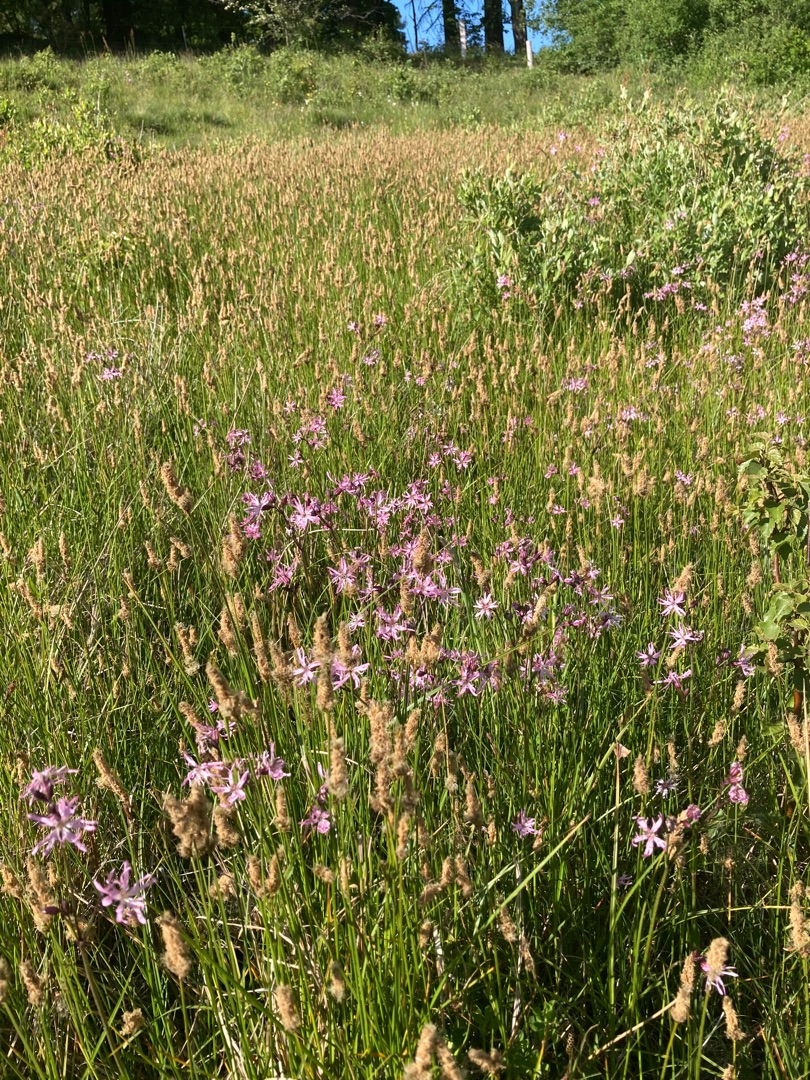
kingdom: Plantae
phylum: Tracheophyta
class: Magnoliopsida
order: Caryophyllales
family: Caryophyllaceae
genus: Silene
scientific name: Silene flos-cuculi
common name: Trævlekrone
